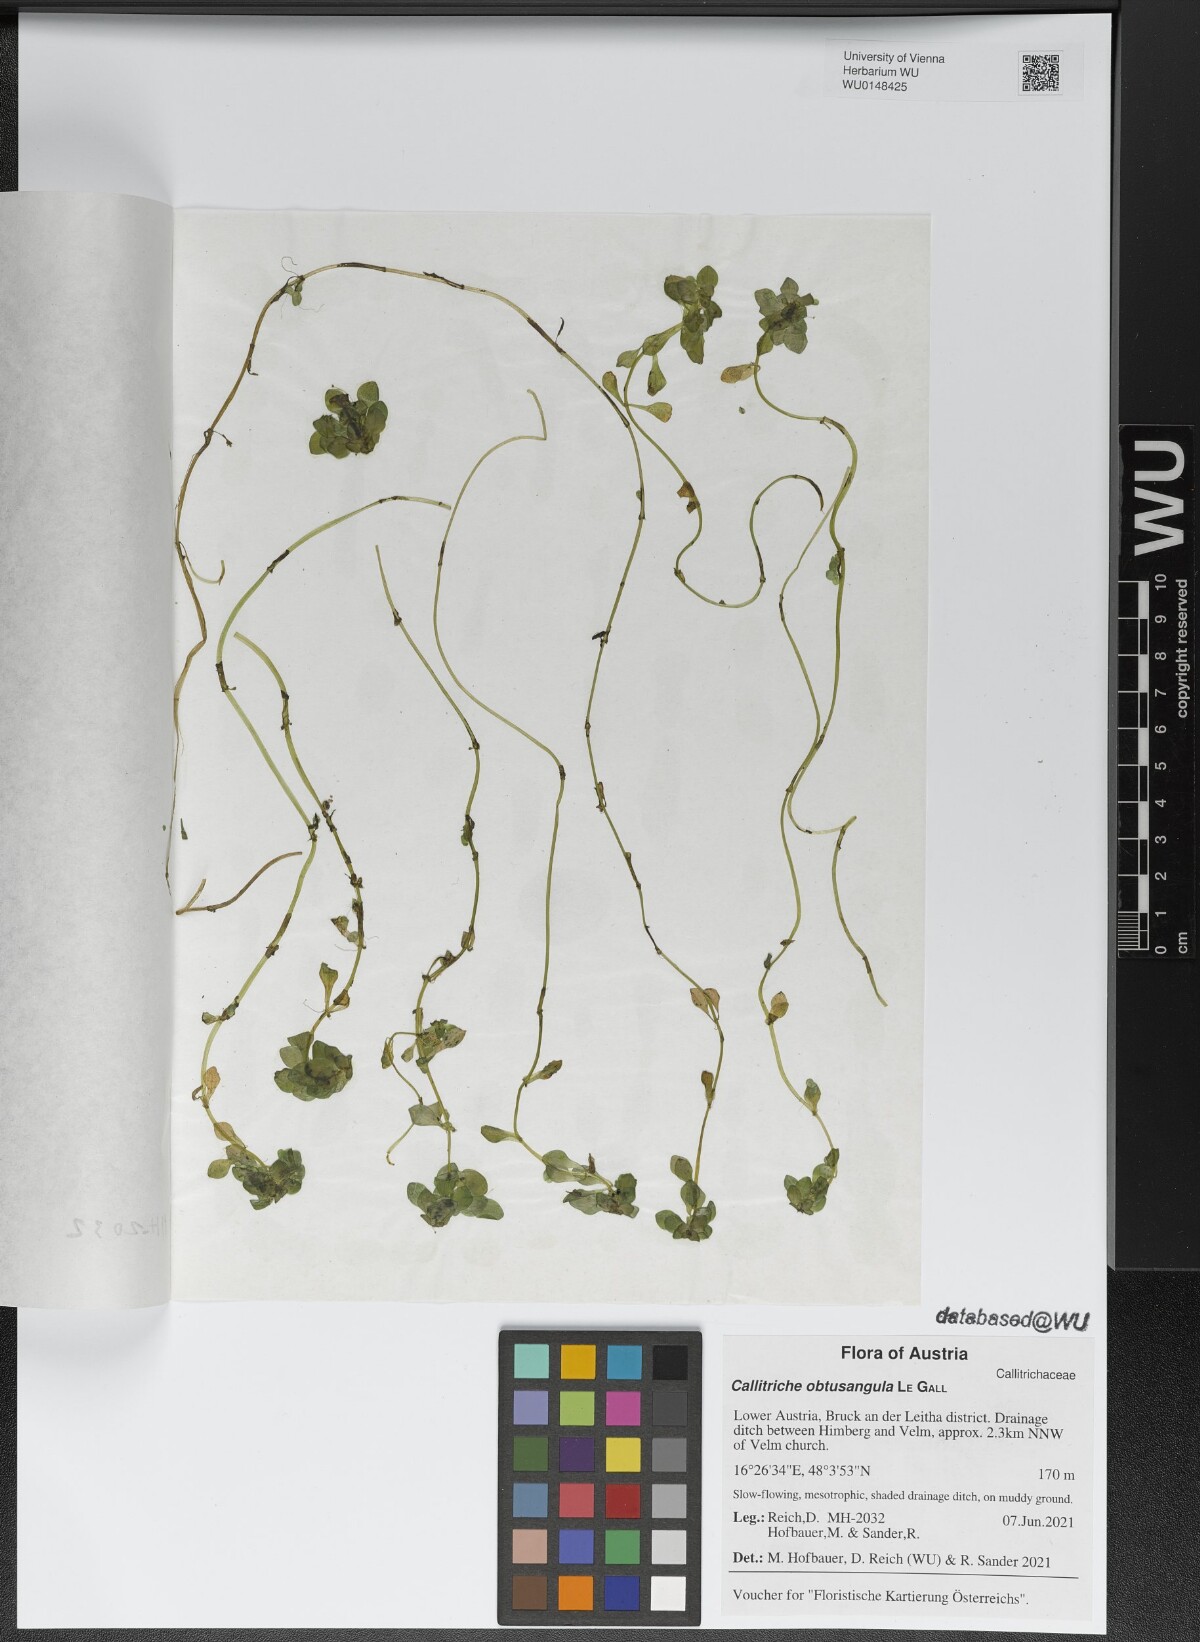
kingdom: Plantae
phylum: Tracheophyta
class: Magnoliopsida
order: Lamiales
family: Plantaginaceae
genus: Callitriche
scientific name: Callitriche obtusangula
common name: Blunt-fruited water-starwort
